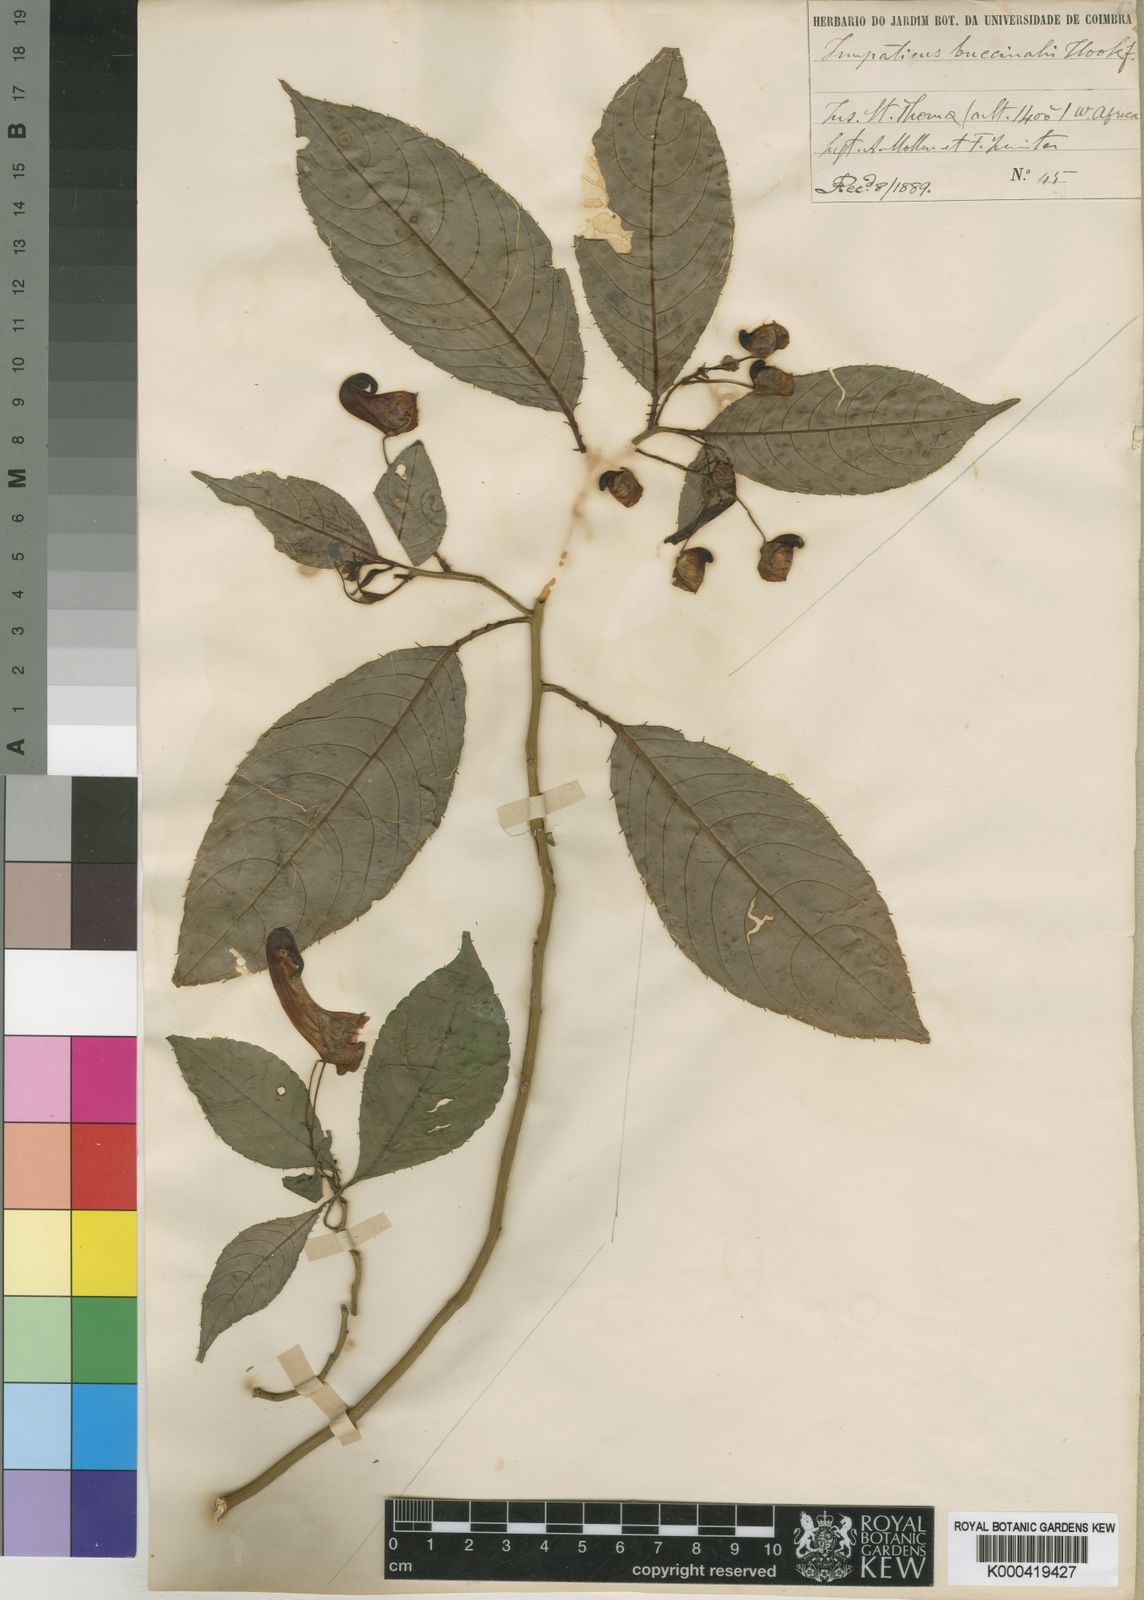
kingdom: Plantae
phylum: Tracheophyta
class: Magnoliopsida
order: Ericales
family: Balsaminaceae
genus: Impatiens
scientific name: Impatiens buccinalis
